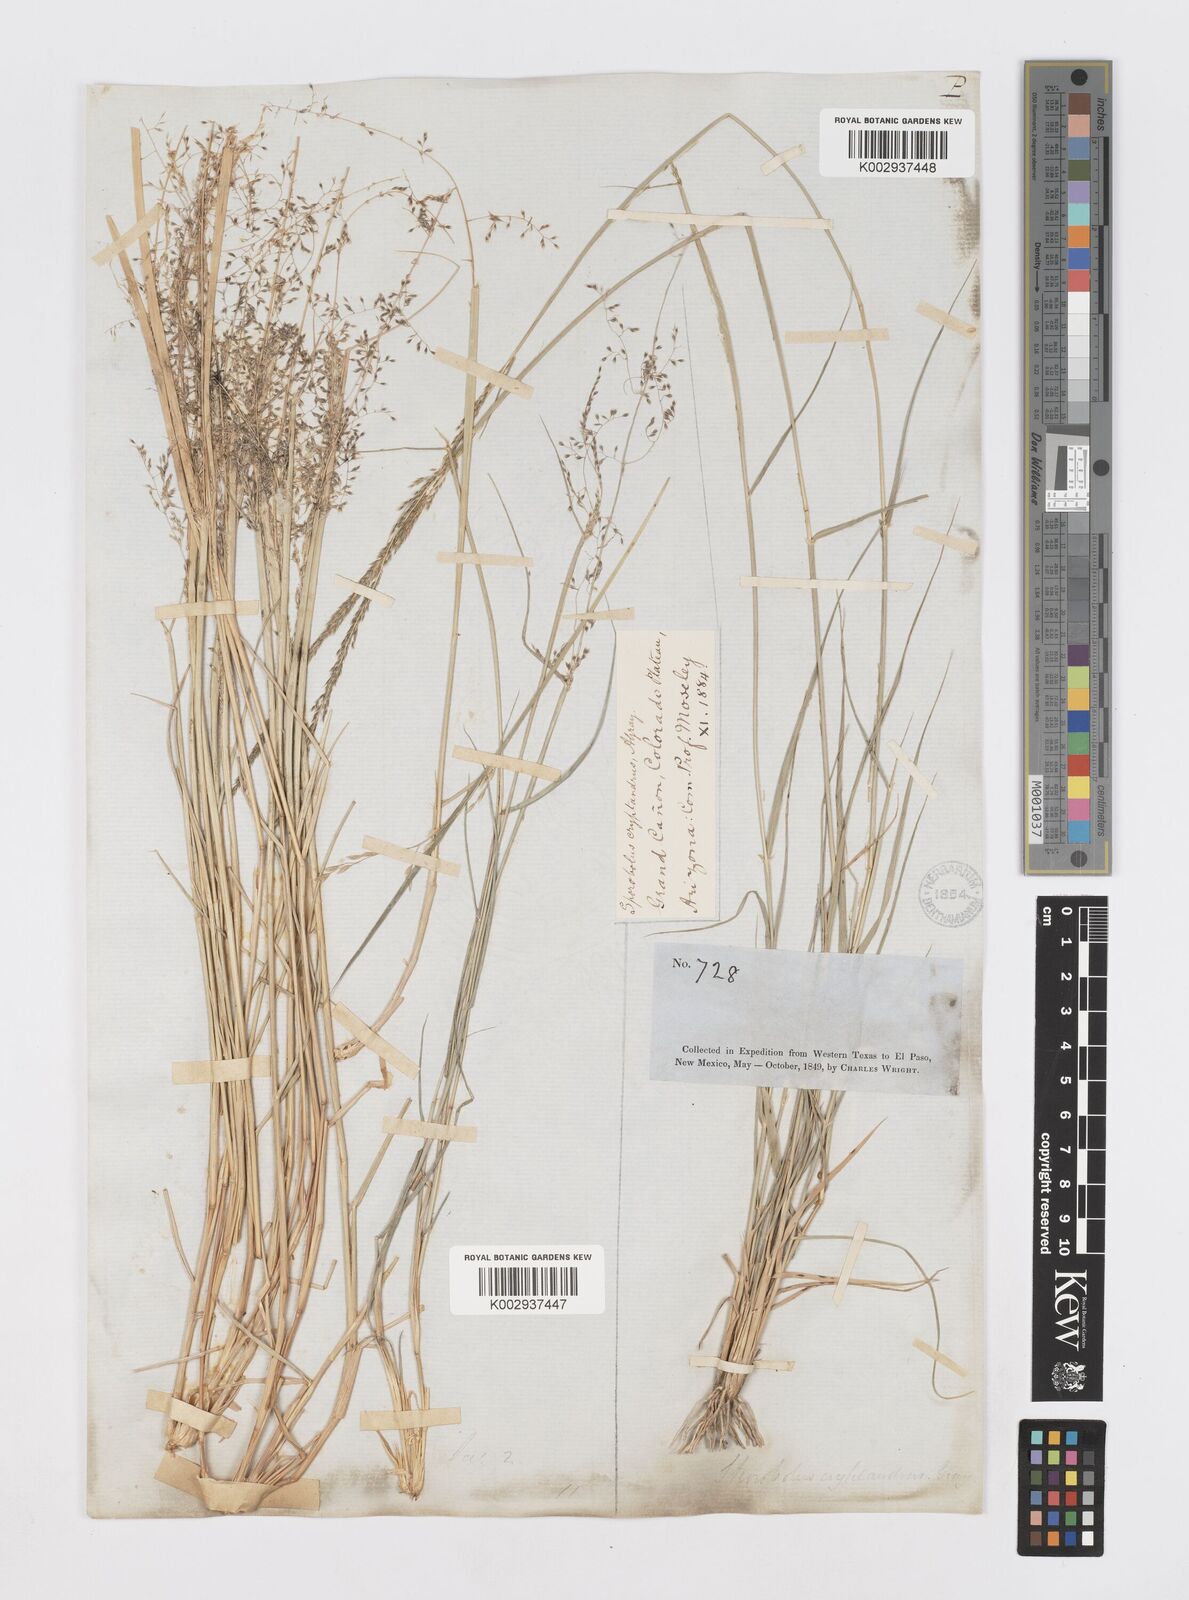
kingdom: Plantae
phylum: Tracheophyta
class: Liliopsida
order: Poales
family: Poaceae
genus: Sporobolus
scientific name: Sporobolus flexuosus
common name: Mesa dropseed
